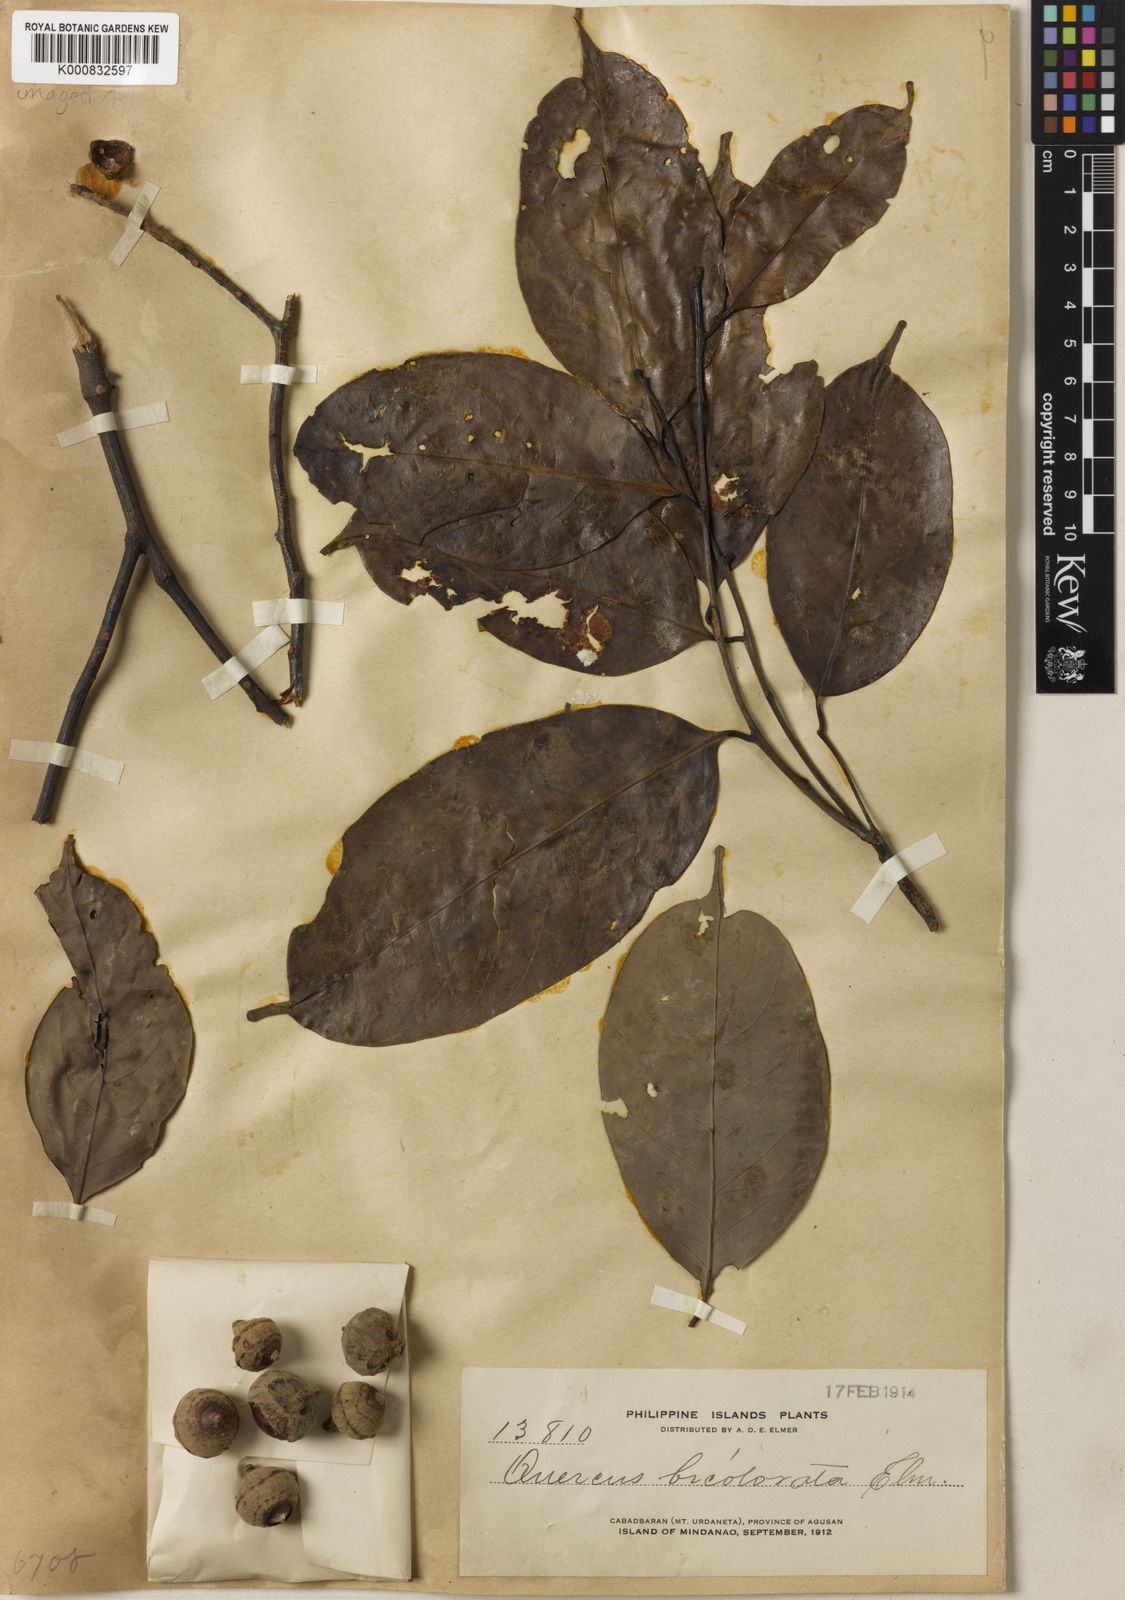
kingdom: Plantae
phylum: Tracheophyta
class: Magnoliopsida
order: Fagales
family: Fagaceae
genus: Lithocarpus
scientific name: Lithocarpus bicoloratus
